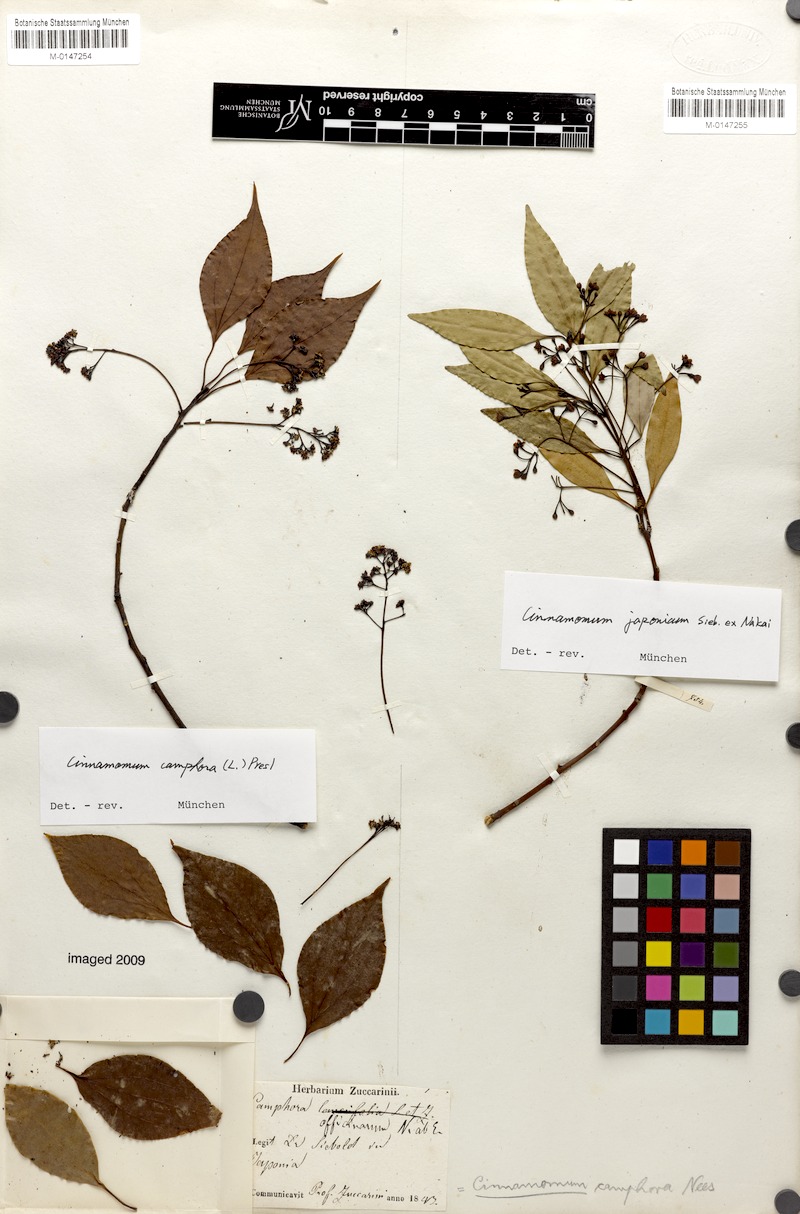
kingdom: Plantae
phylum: Tracheophyta
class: Magnoliopsida
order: Laurales
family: Lauraceae
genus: Cinnamomum
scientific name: Cinnamomum chekiangense
